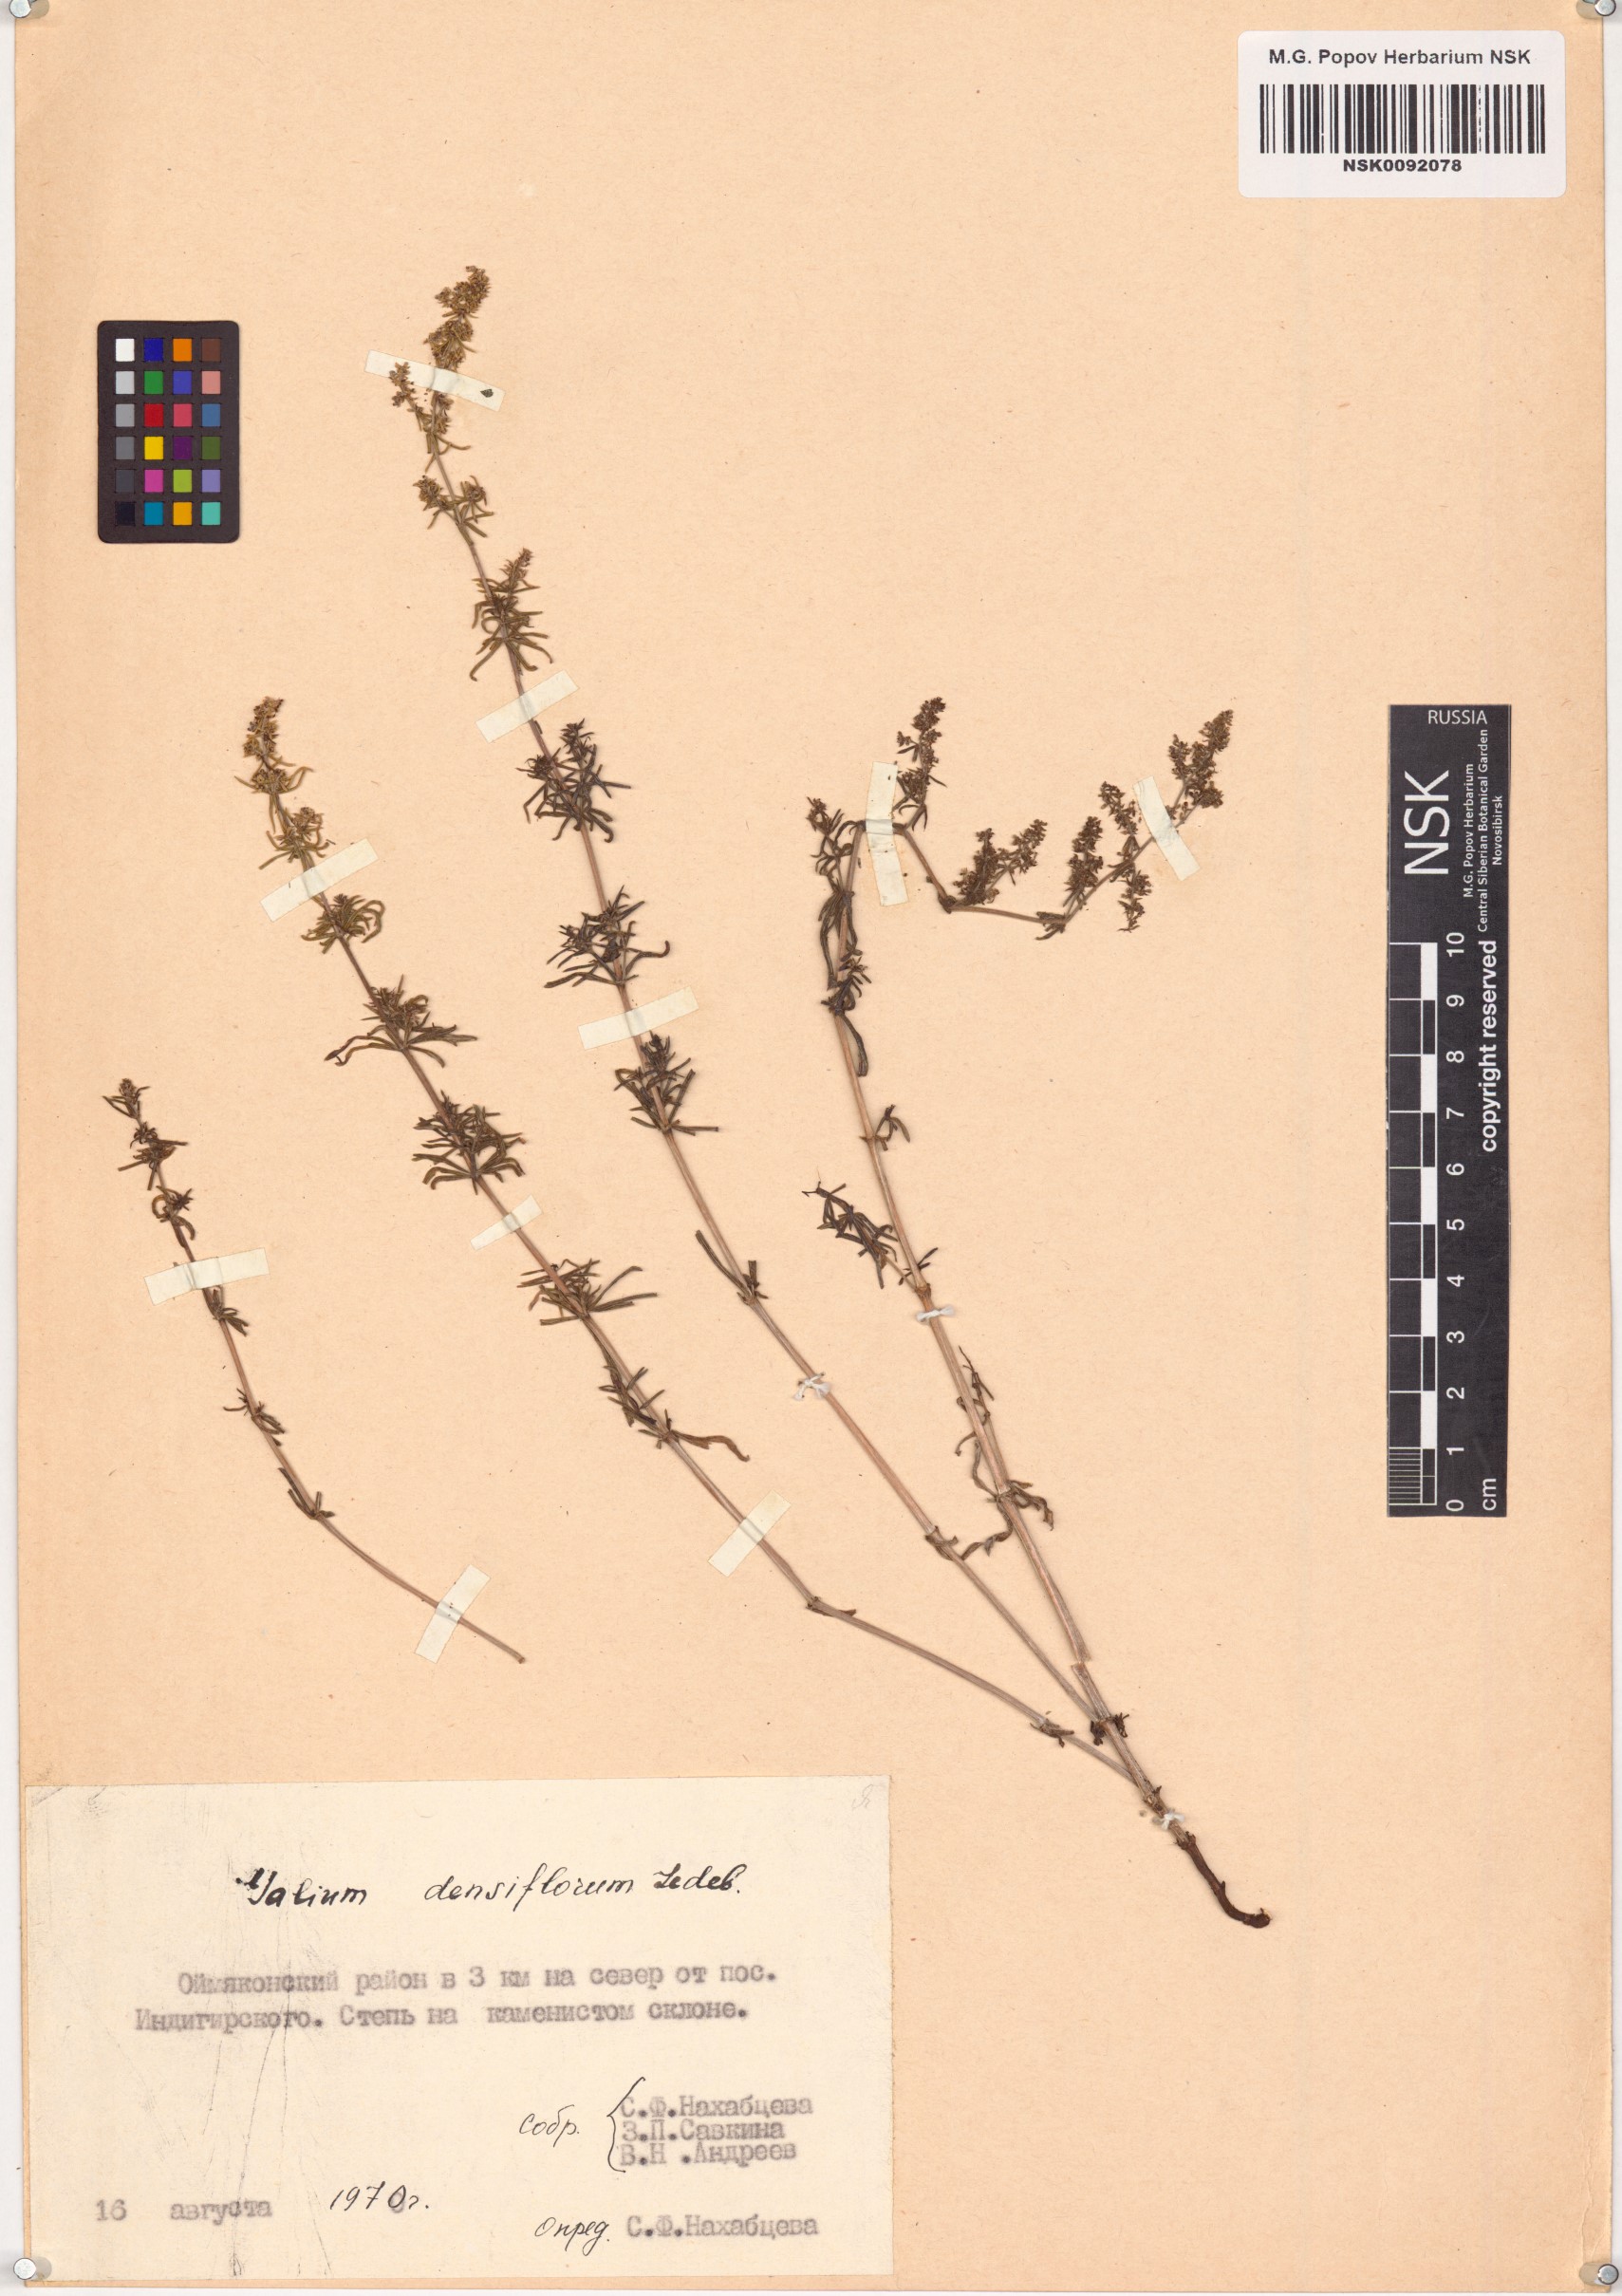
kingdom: Plantae
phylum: Tracheophyta
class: Magnoliopsida
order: Gentianales
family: Rubiaceae
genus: Galium
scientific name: Galium densiflorum
